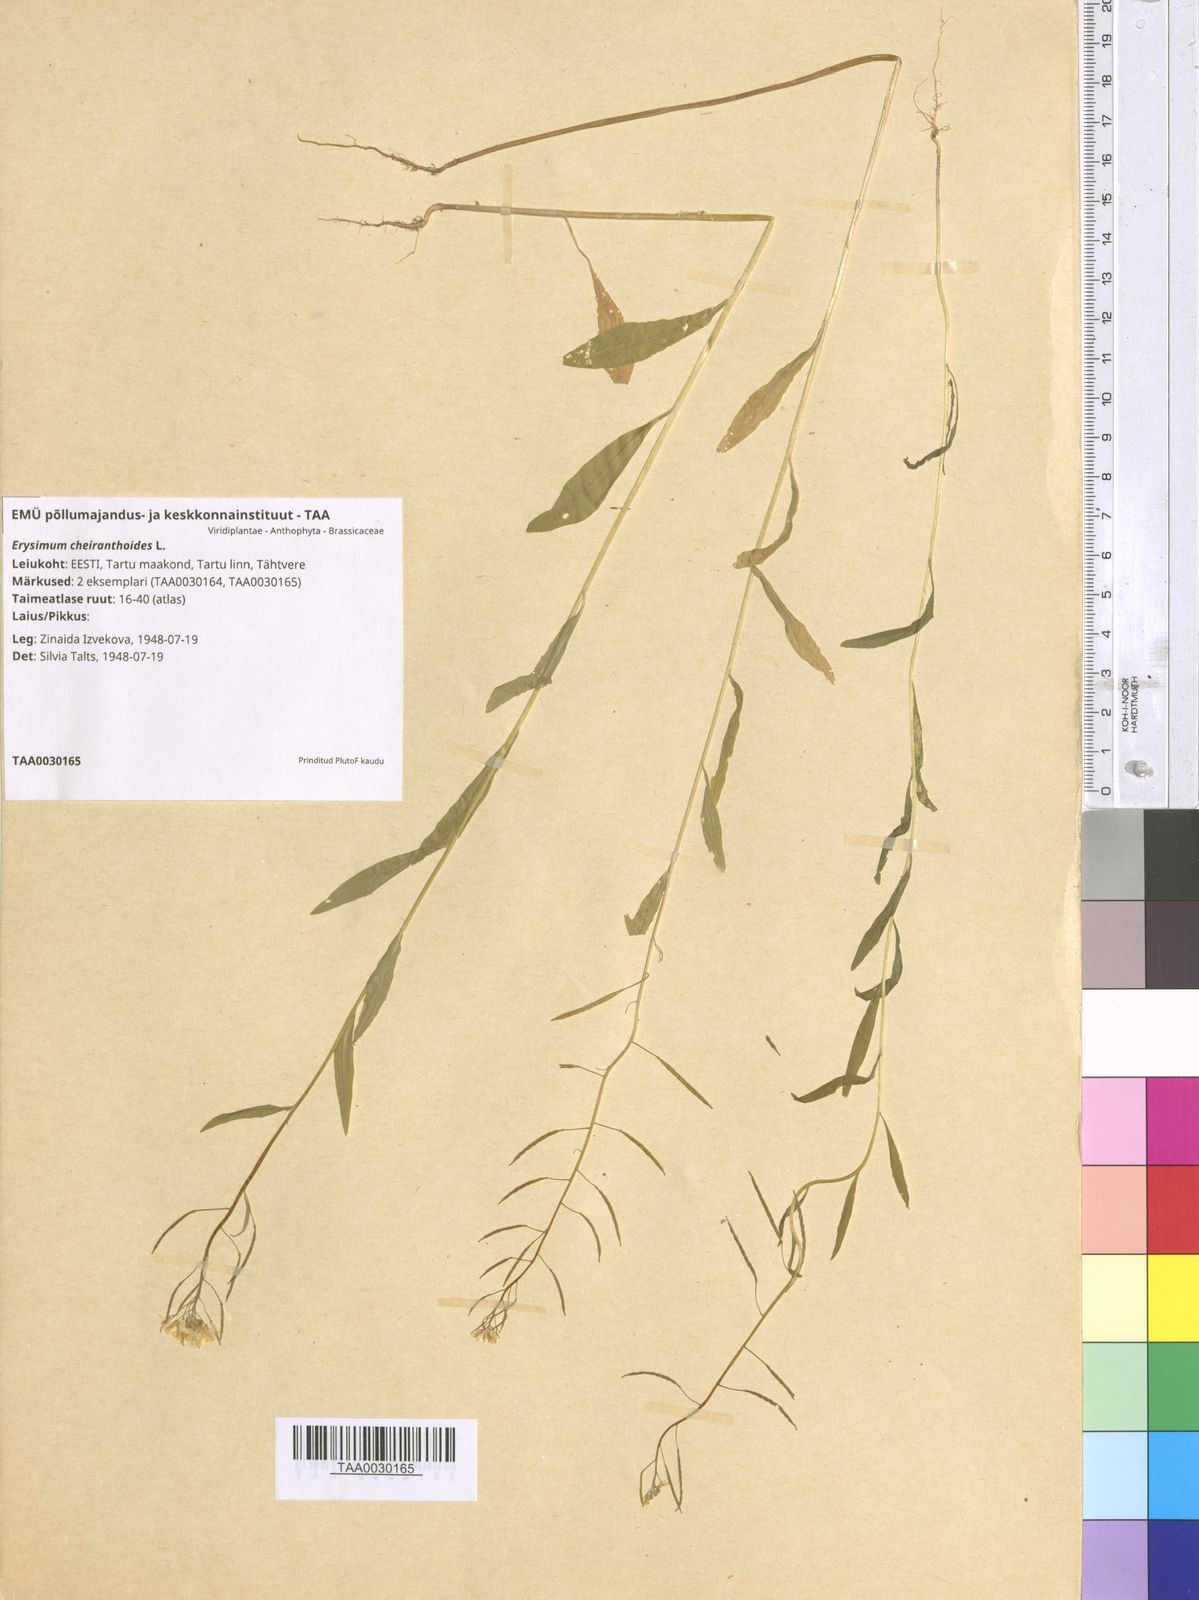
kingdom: Plantae
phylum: Tracheophyta
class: Magnoliopsida
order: Brassicales
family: Brassicaceae
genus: Erysimum
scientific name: Erysimum cheiranthoides
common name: Treacle mustard
